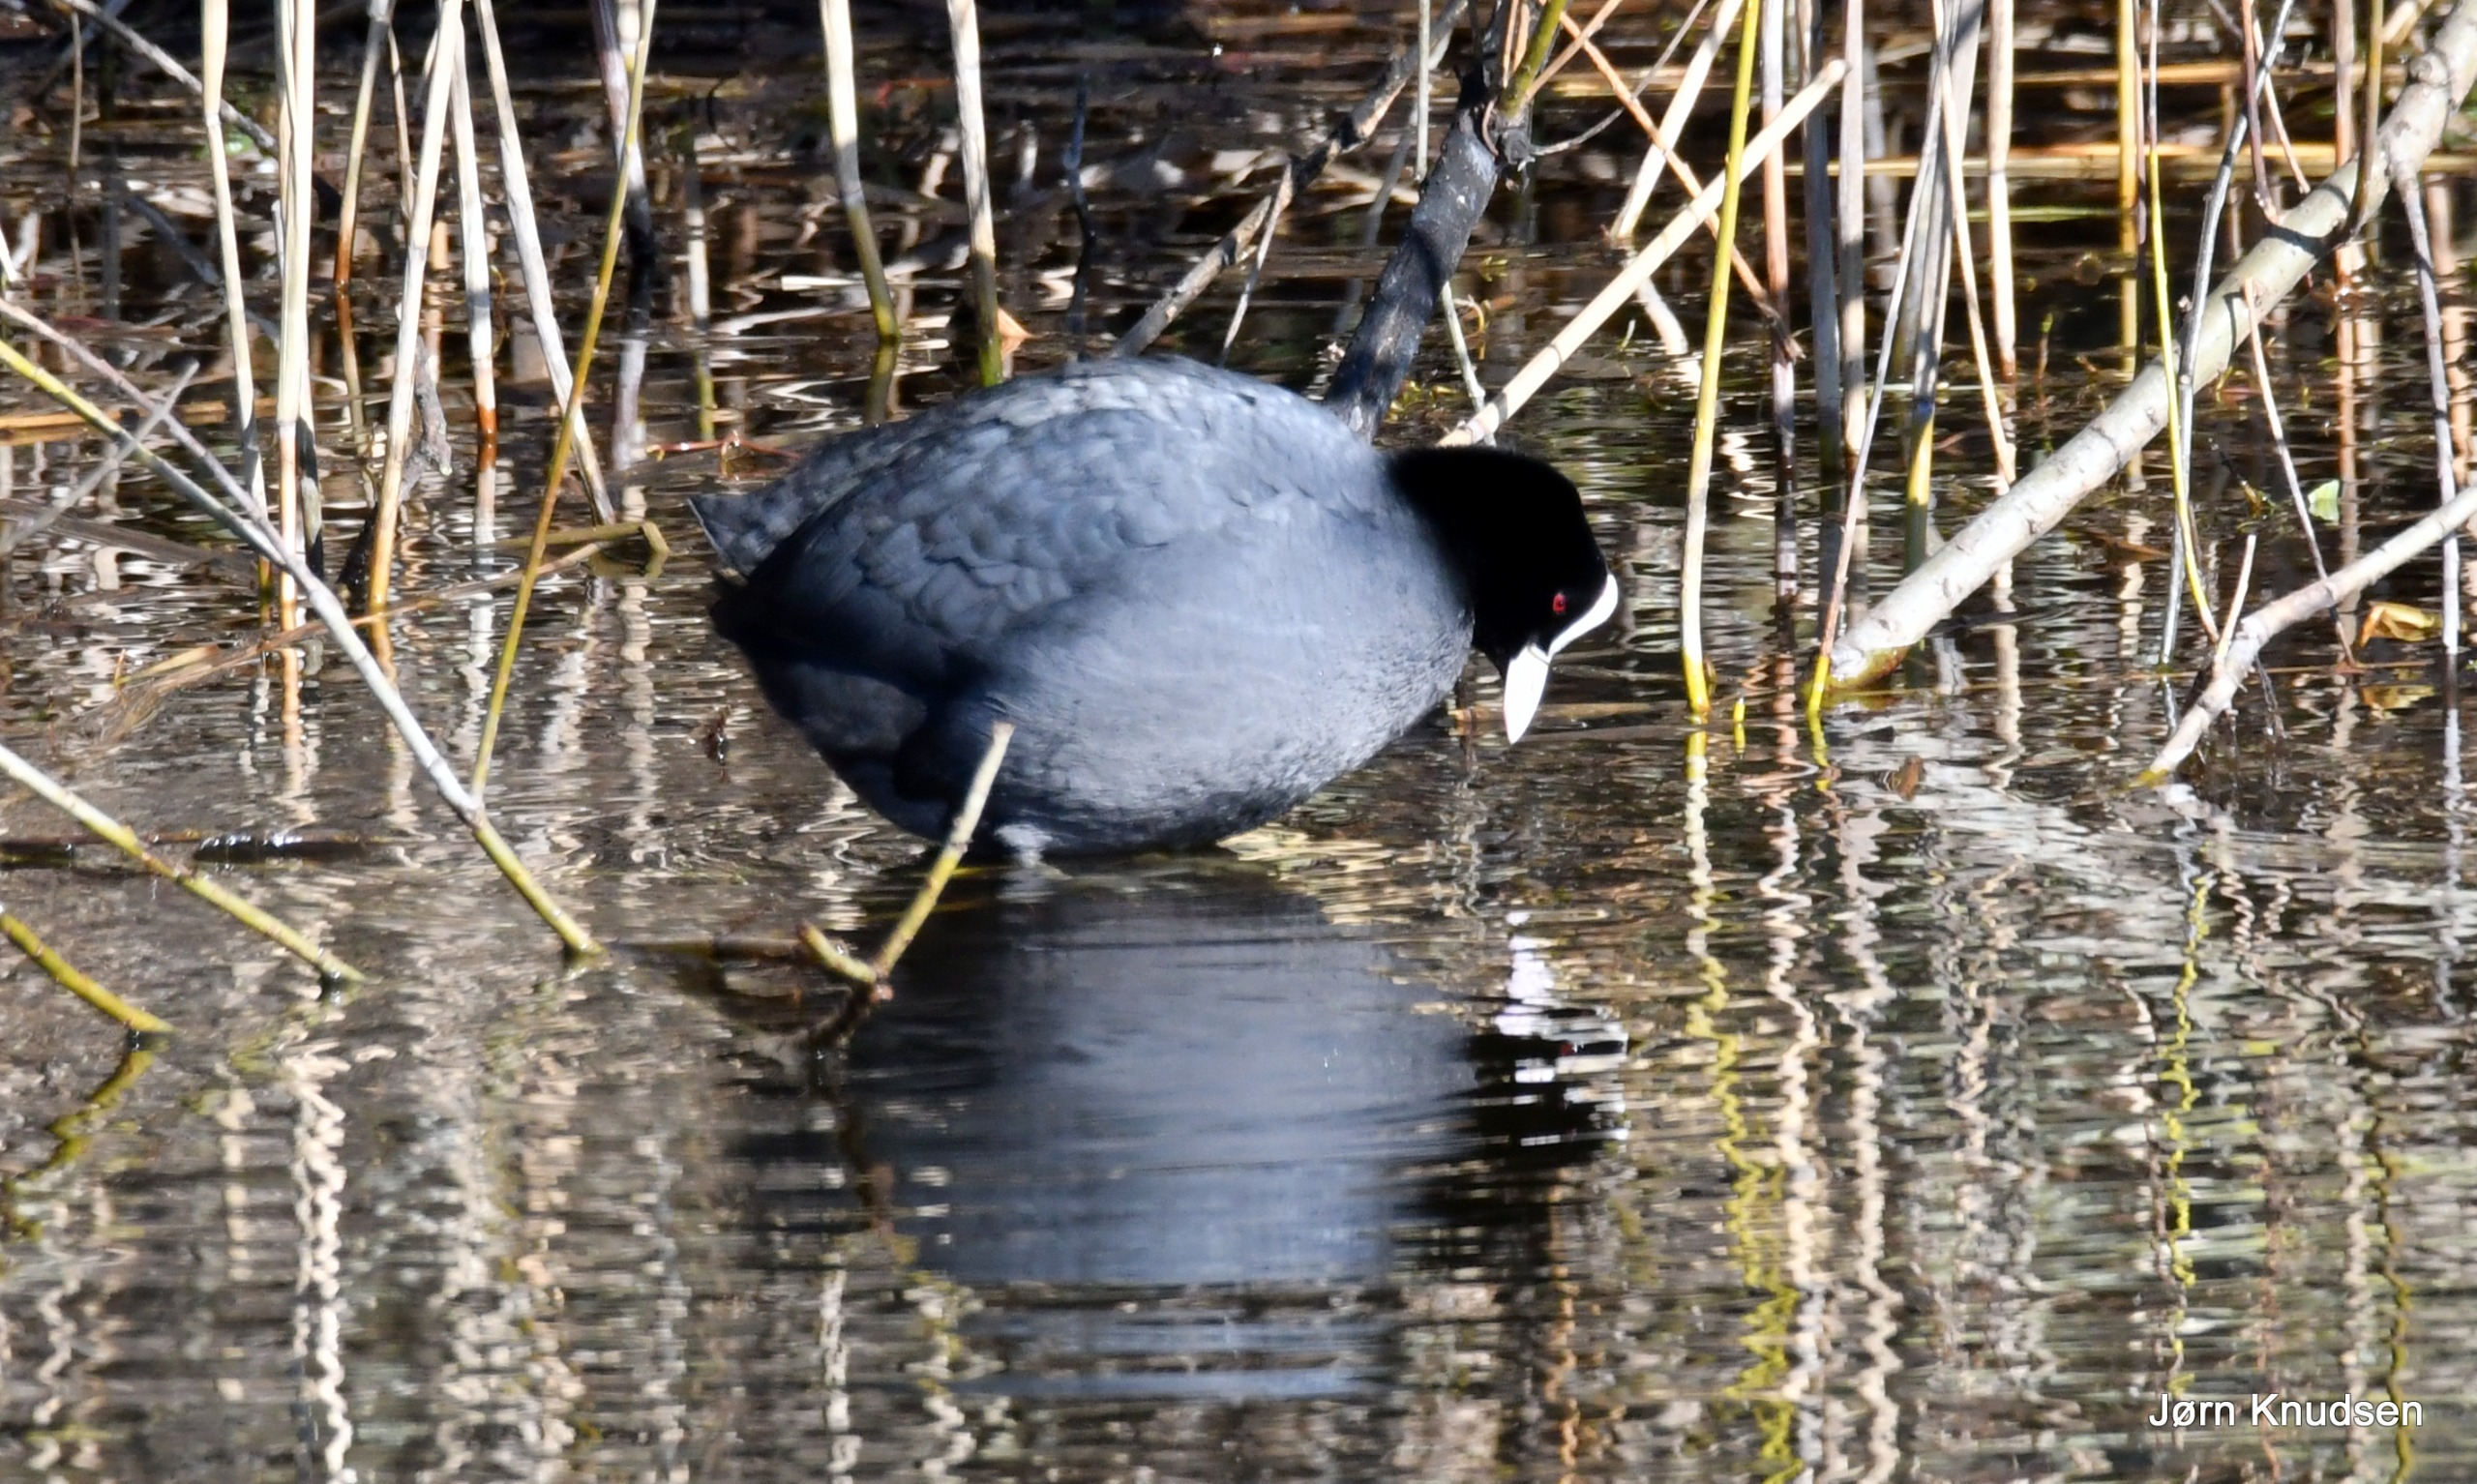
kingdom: Animalia
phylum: Chordata
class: Aves
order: Gruiformes
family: Rallidae
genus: Fulica
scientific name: Fulica atra
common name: Blishøne
